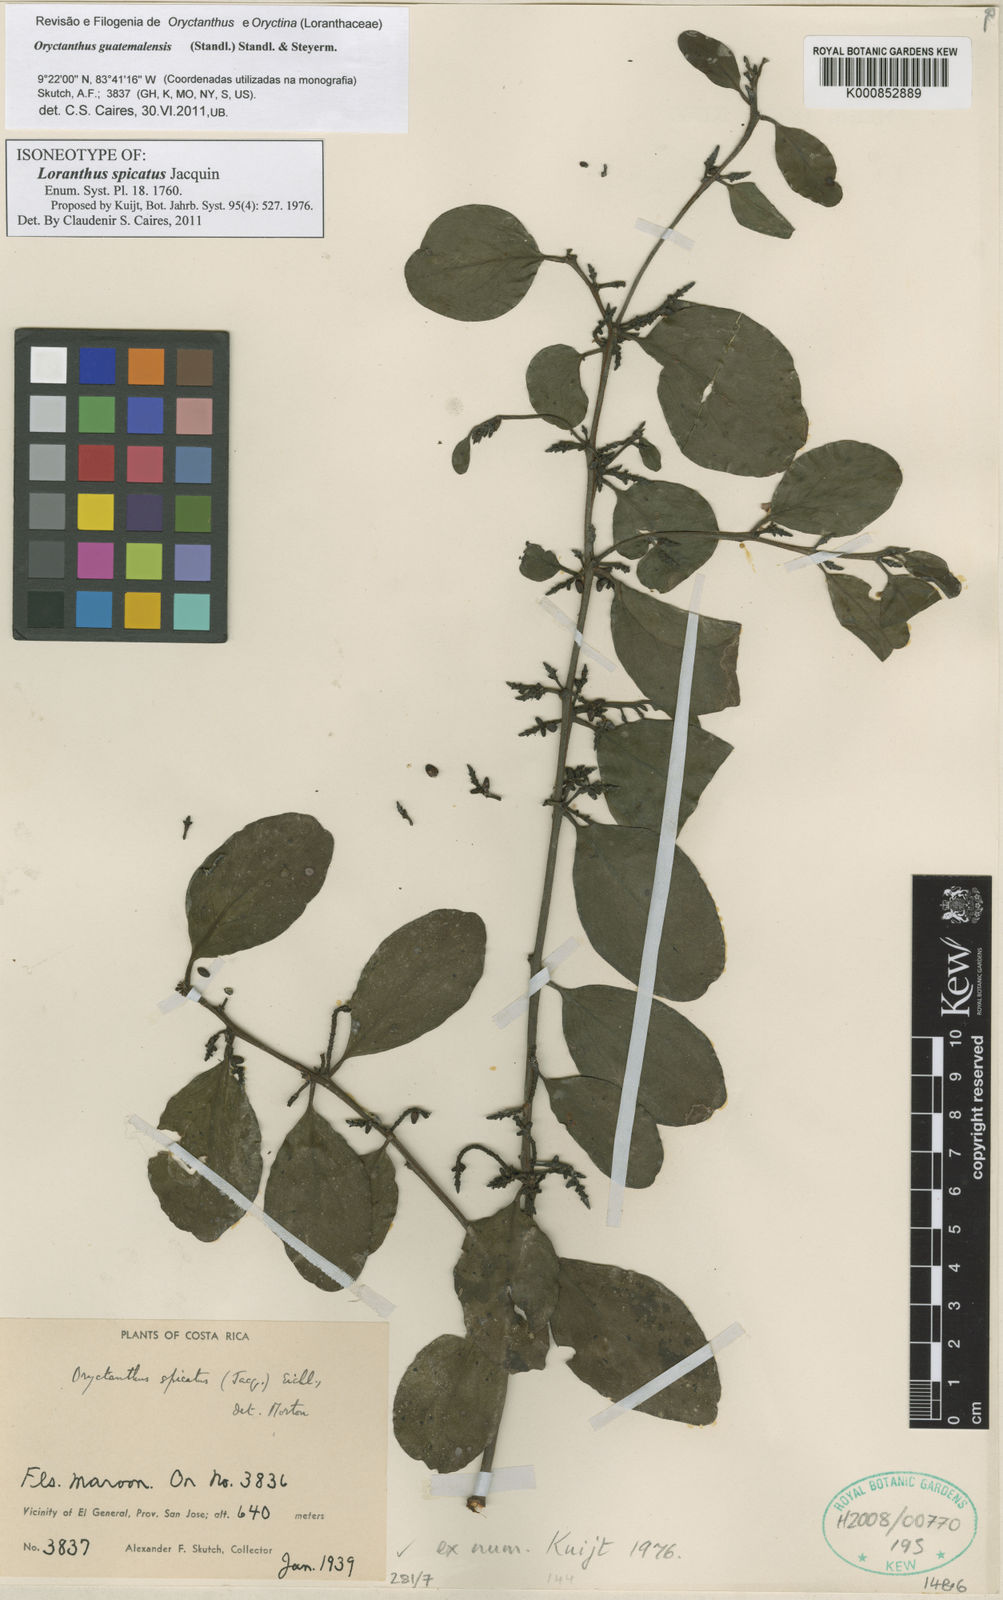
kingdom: Plantae
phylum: Tracheophyta
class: Magnoliopsida
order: Santalales
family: Loranthaceae
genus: Oryctanthus
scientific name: Oryctanthus spicatus
